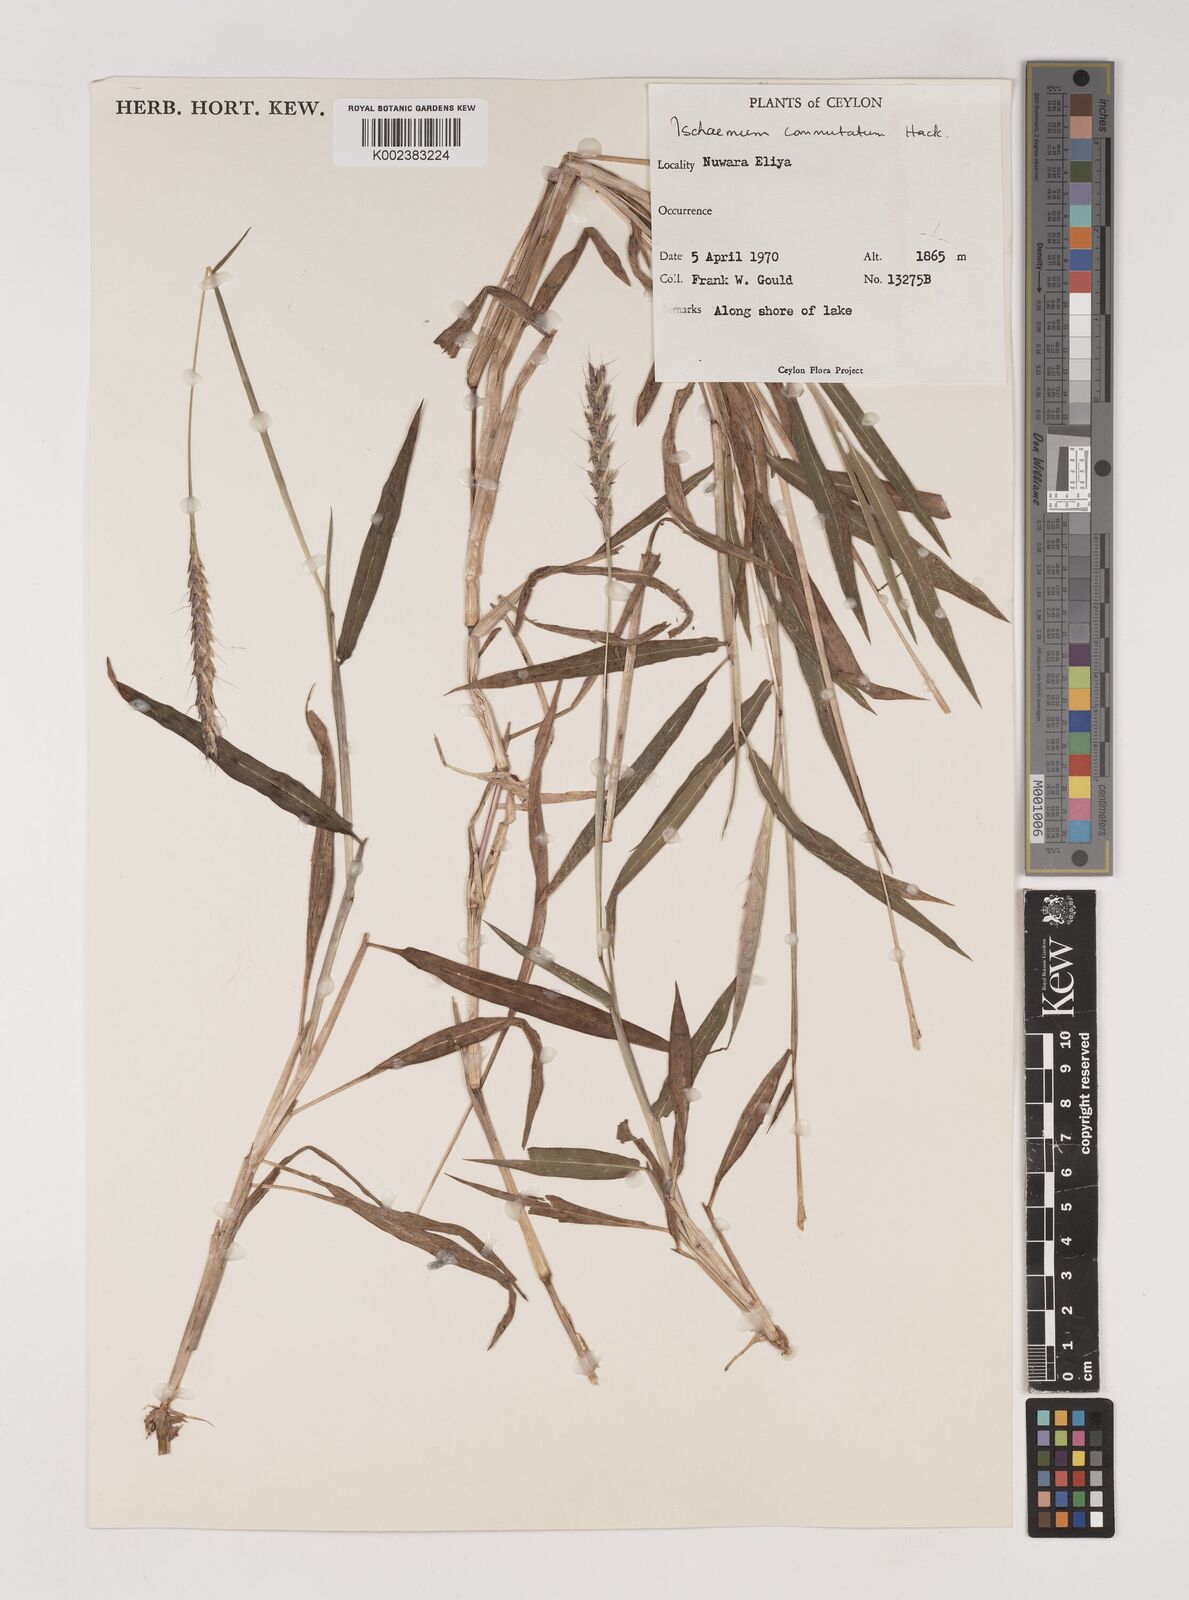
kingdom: Plantae
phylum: Tracheophyta
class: Liliopsida
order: Poales
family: Poaceae
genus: Ischaemum
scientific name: Ischaemum commutatum
